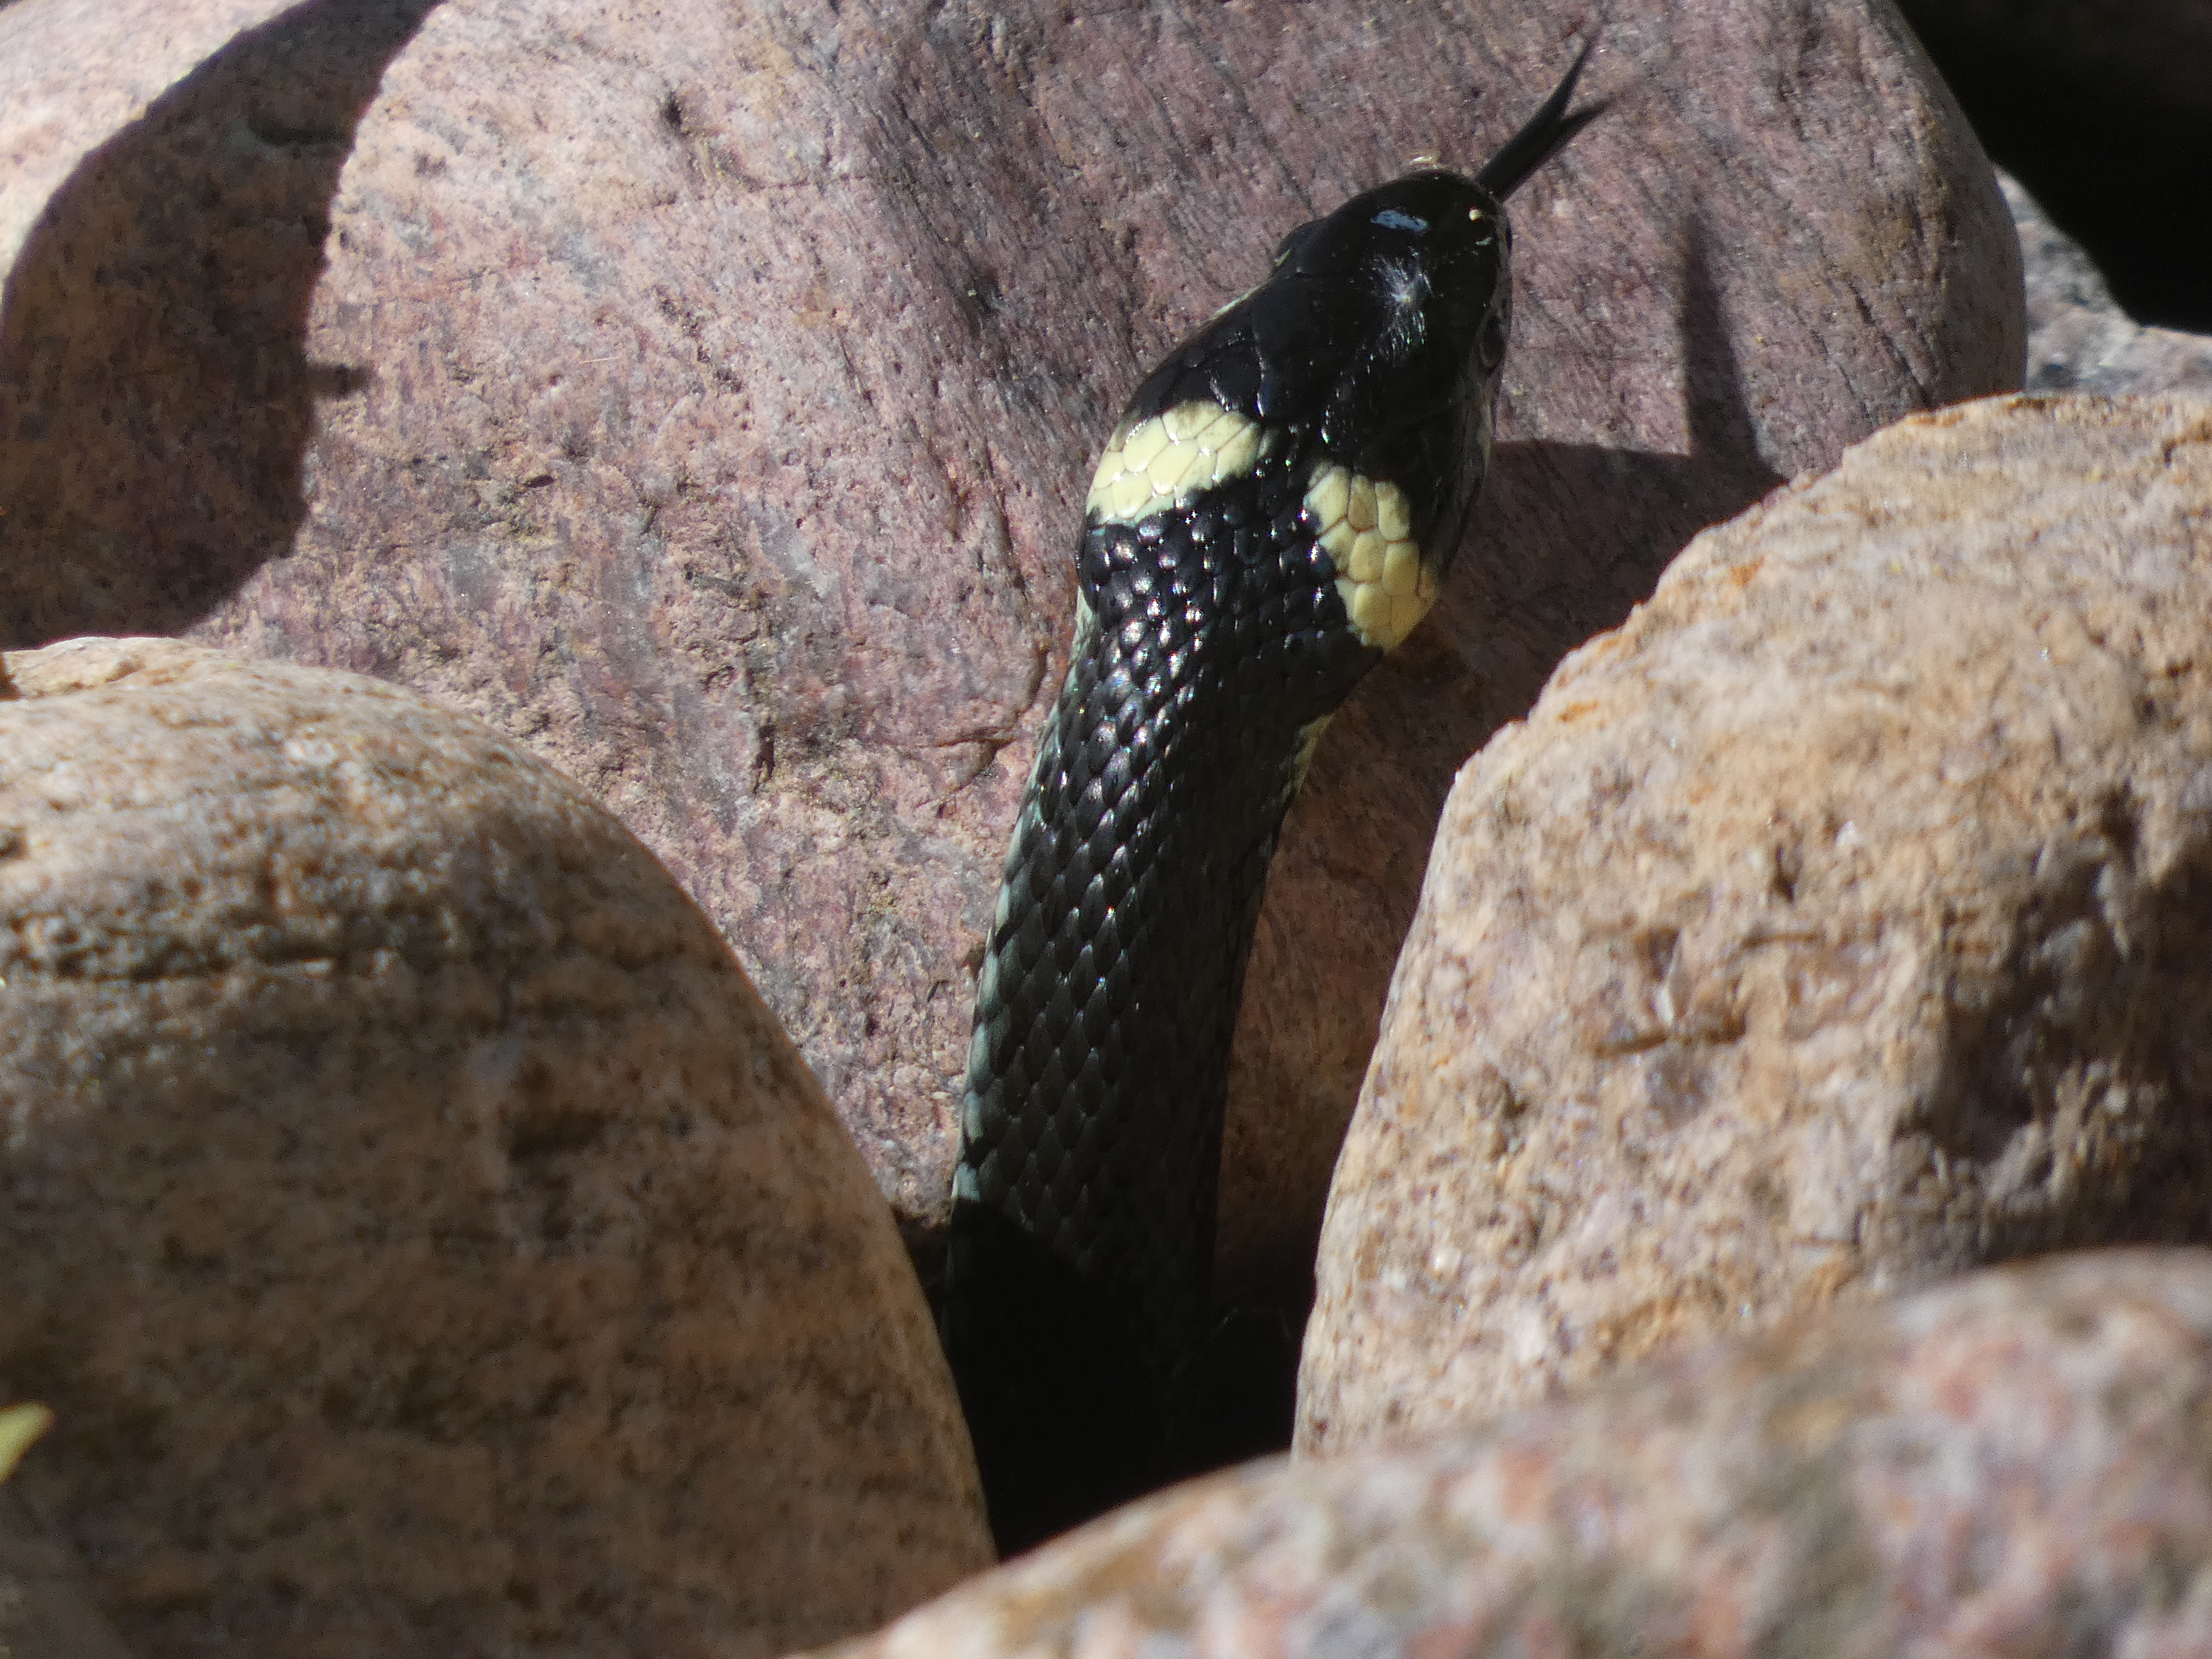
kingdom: Animalia
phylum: Chordata
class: Squamata
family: Colubridae
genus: Natrix
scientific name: Natrix natrix
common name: Snog
